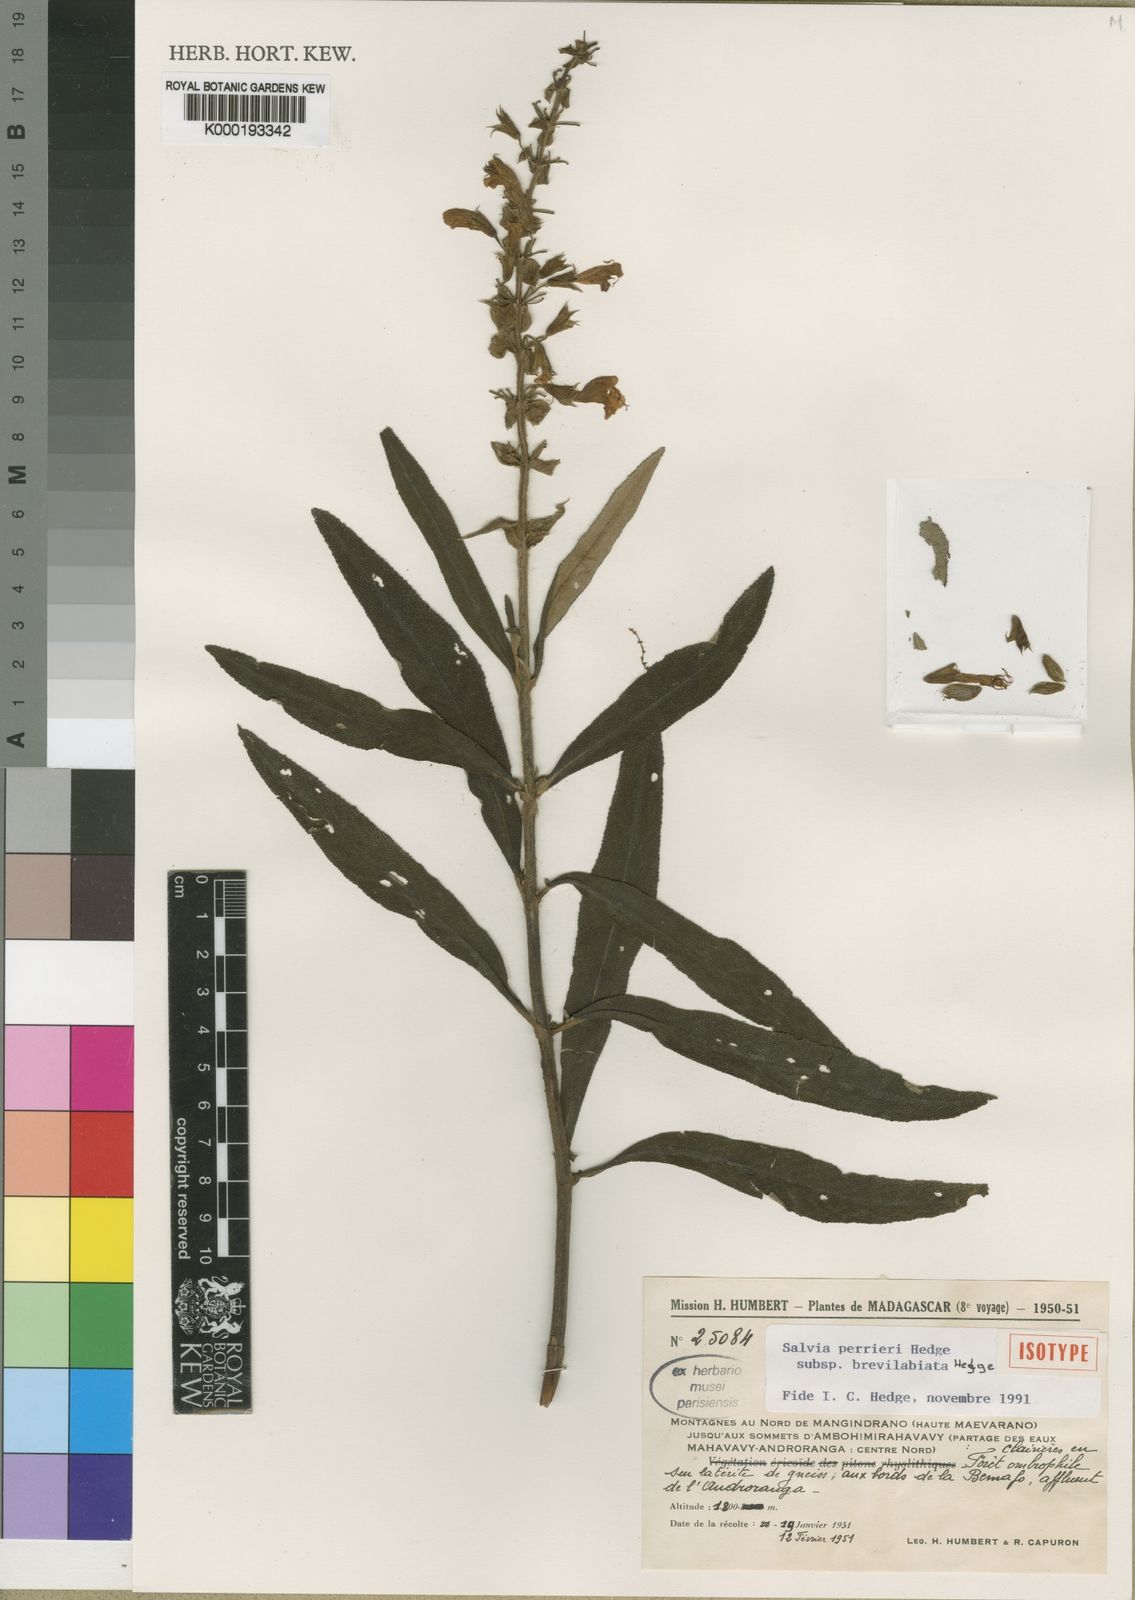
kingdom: Plantae
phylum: Tracheophyta
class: Magnoliopsida
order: Lamiales
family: Lamiaceae
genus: Salvia
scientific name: Salvia perrieri
